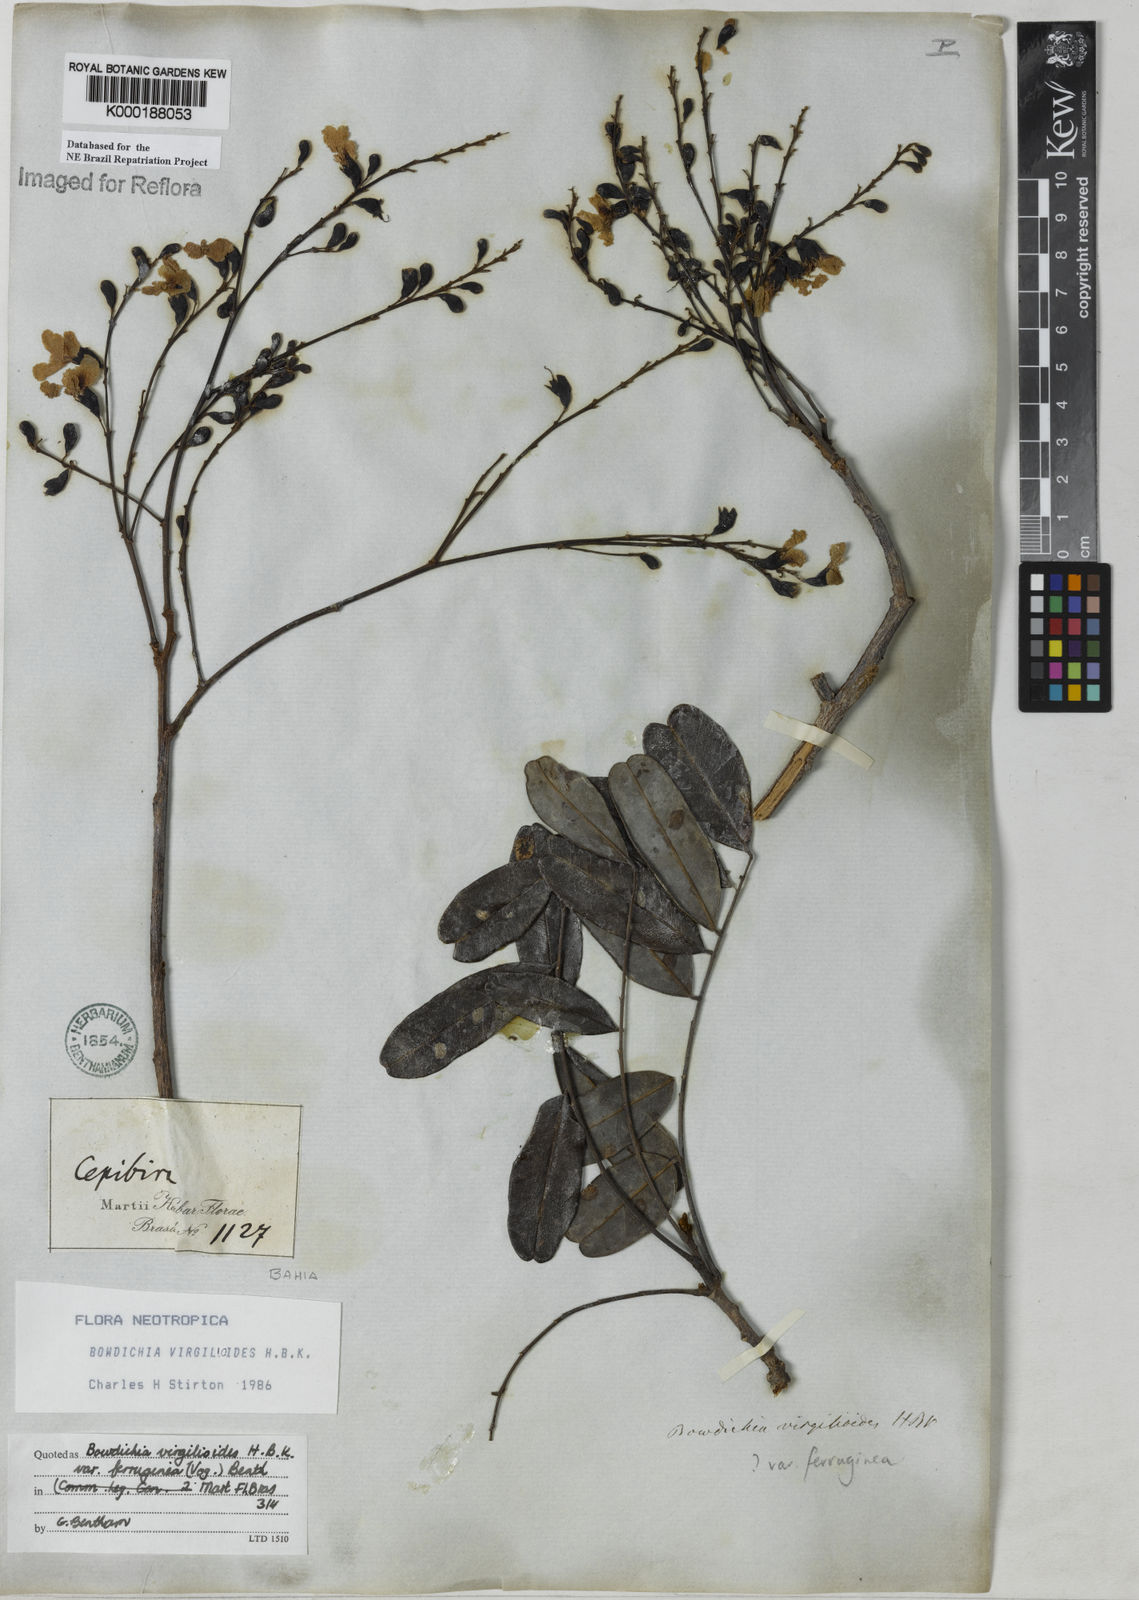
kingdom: Plantae
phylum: Tracheophyta
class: Magnoliopsida
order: Fabales
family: Fabaceae
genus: Bowdichia
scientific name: Bowdichia virgilioides
